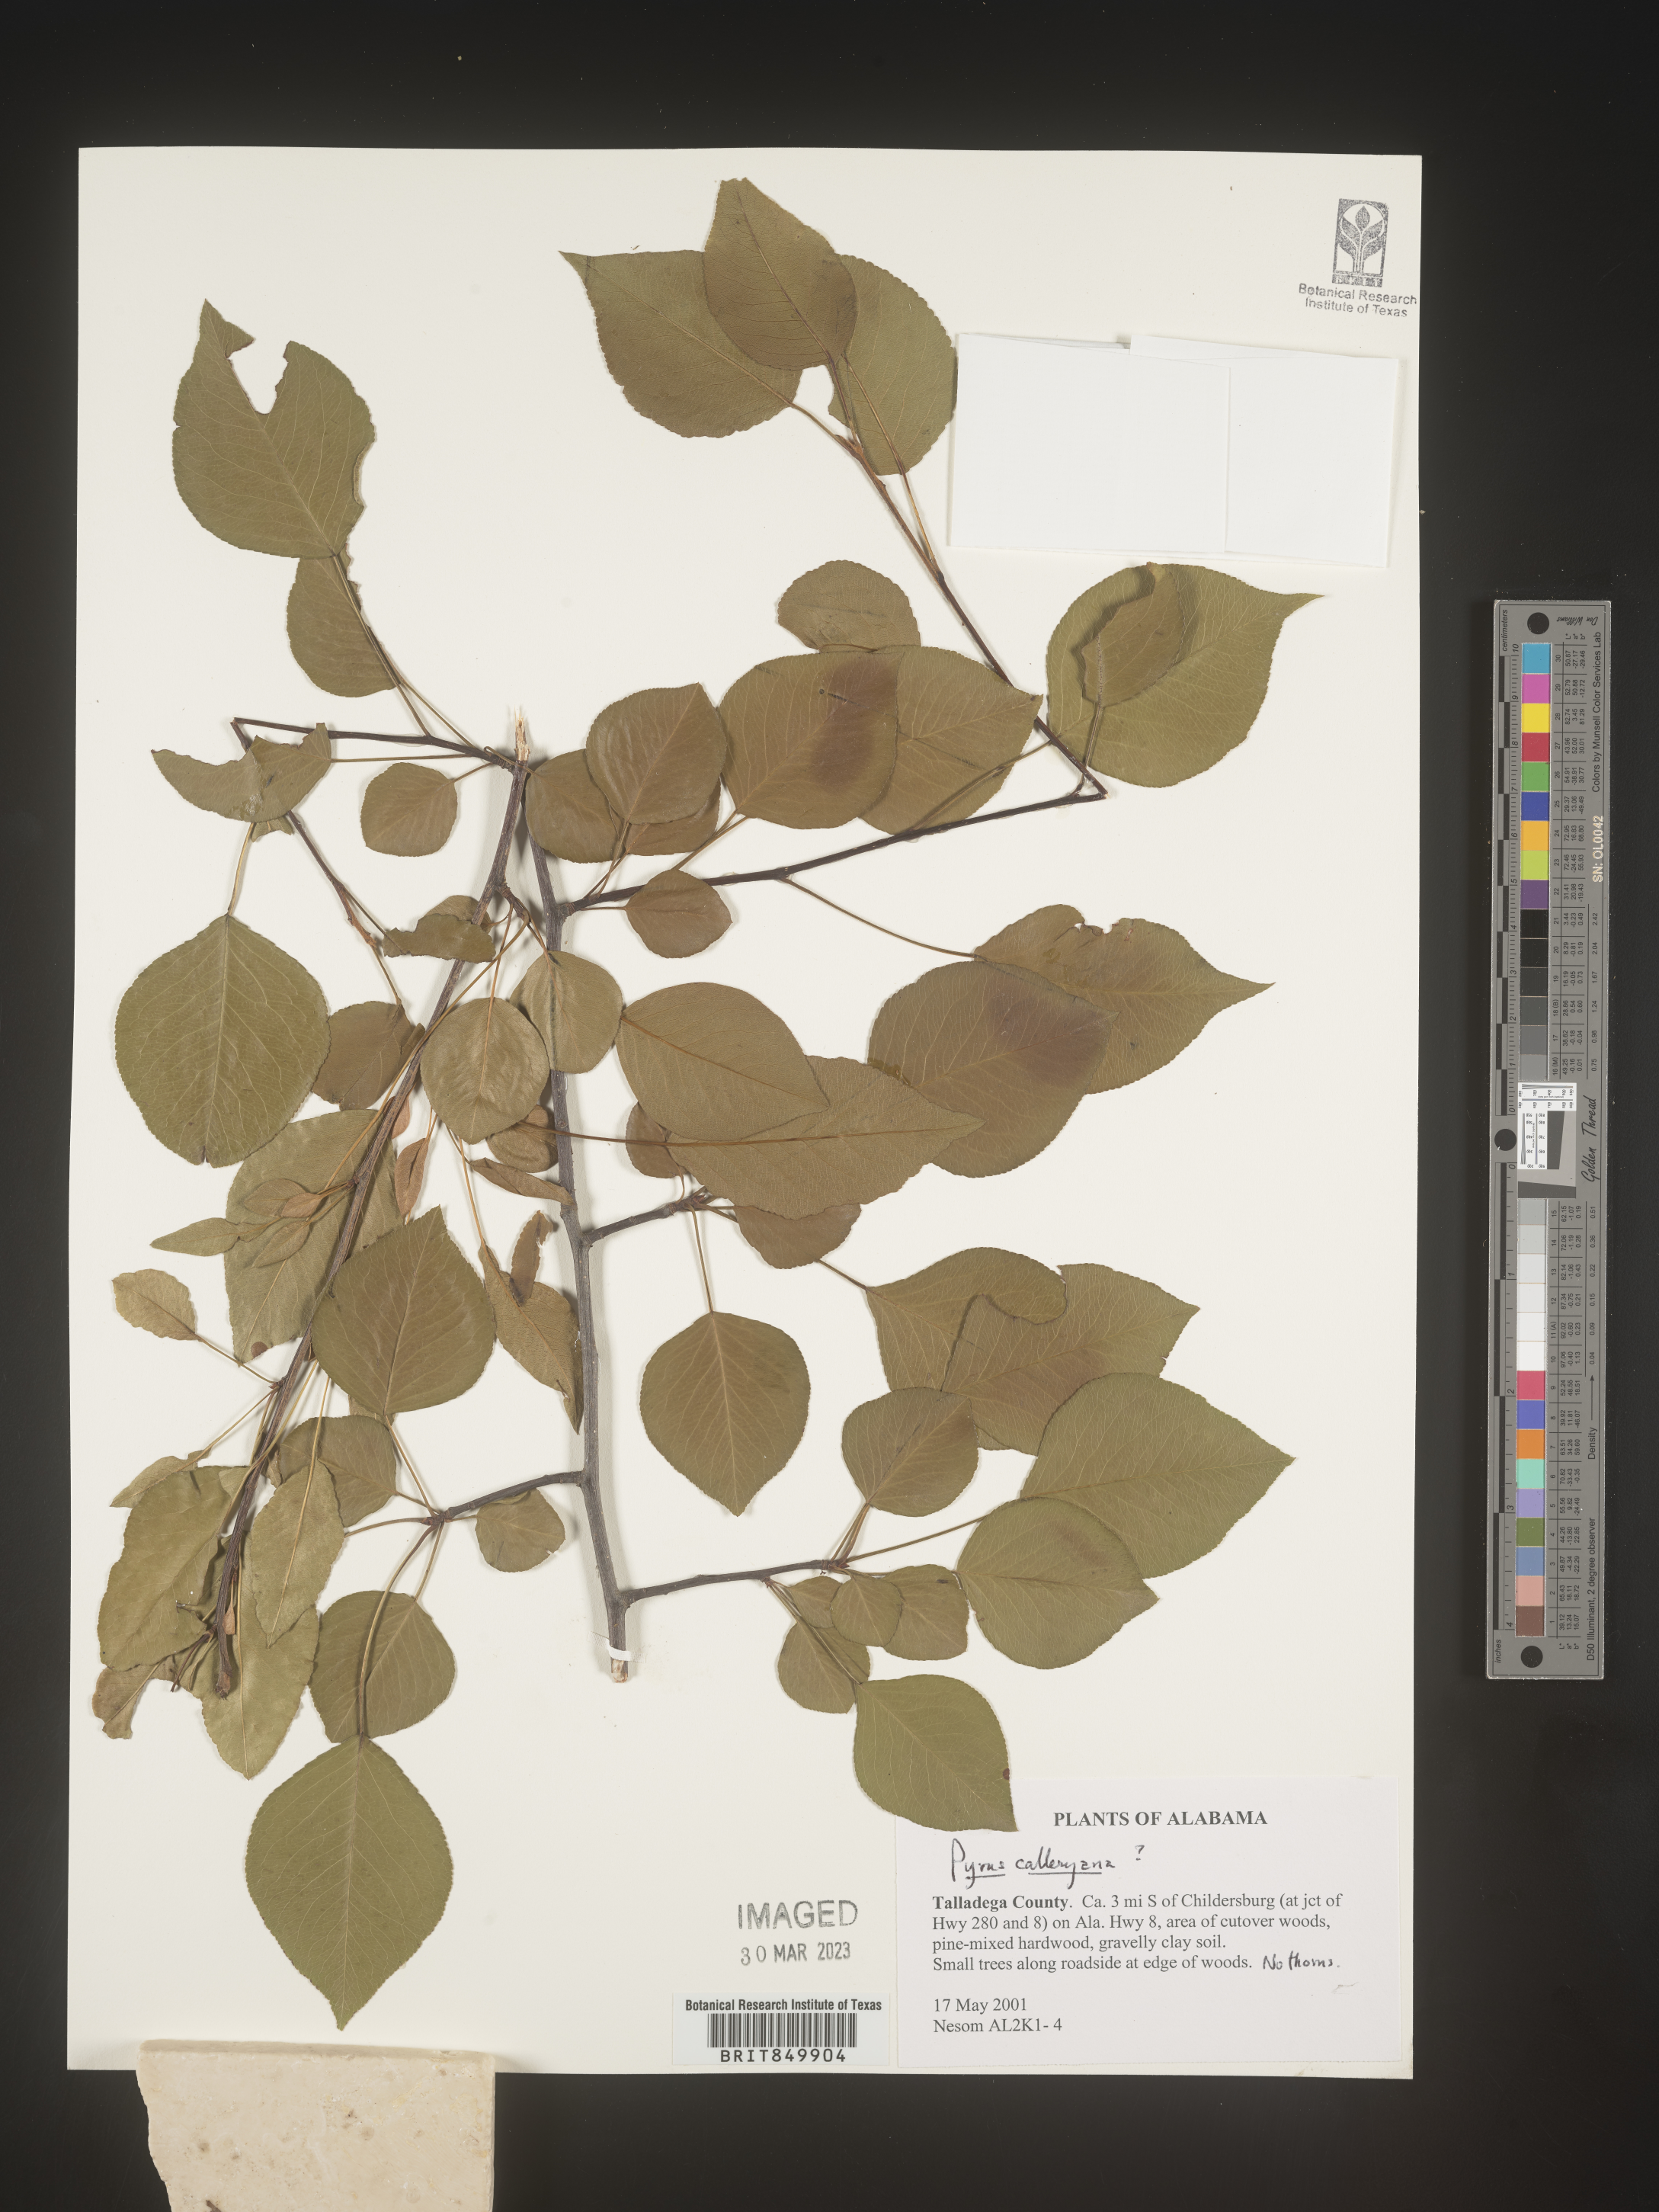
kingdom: Plantae
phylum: Tracheophyta
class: Magnoliopsida
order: Rosales
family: Rosaceae
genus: Pyrus
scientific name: Pyrus
